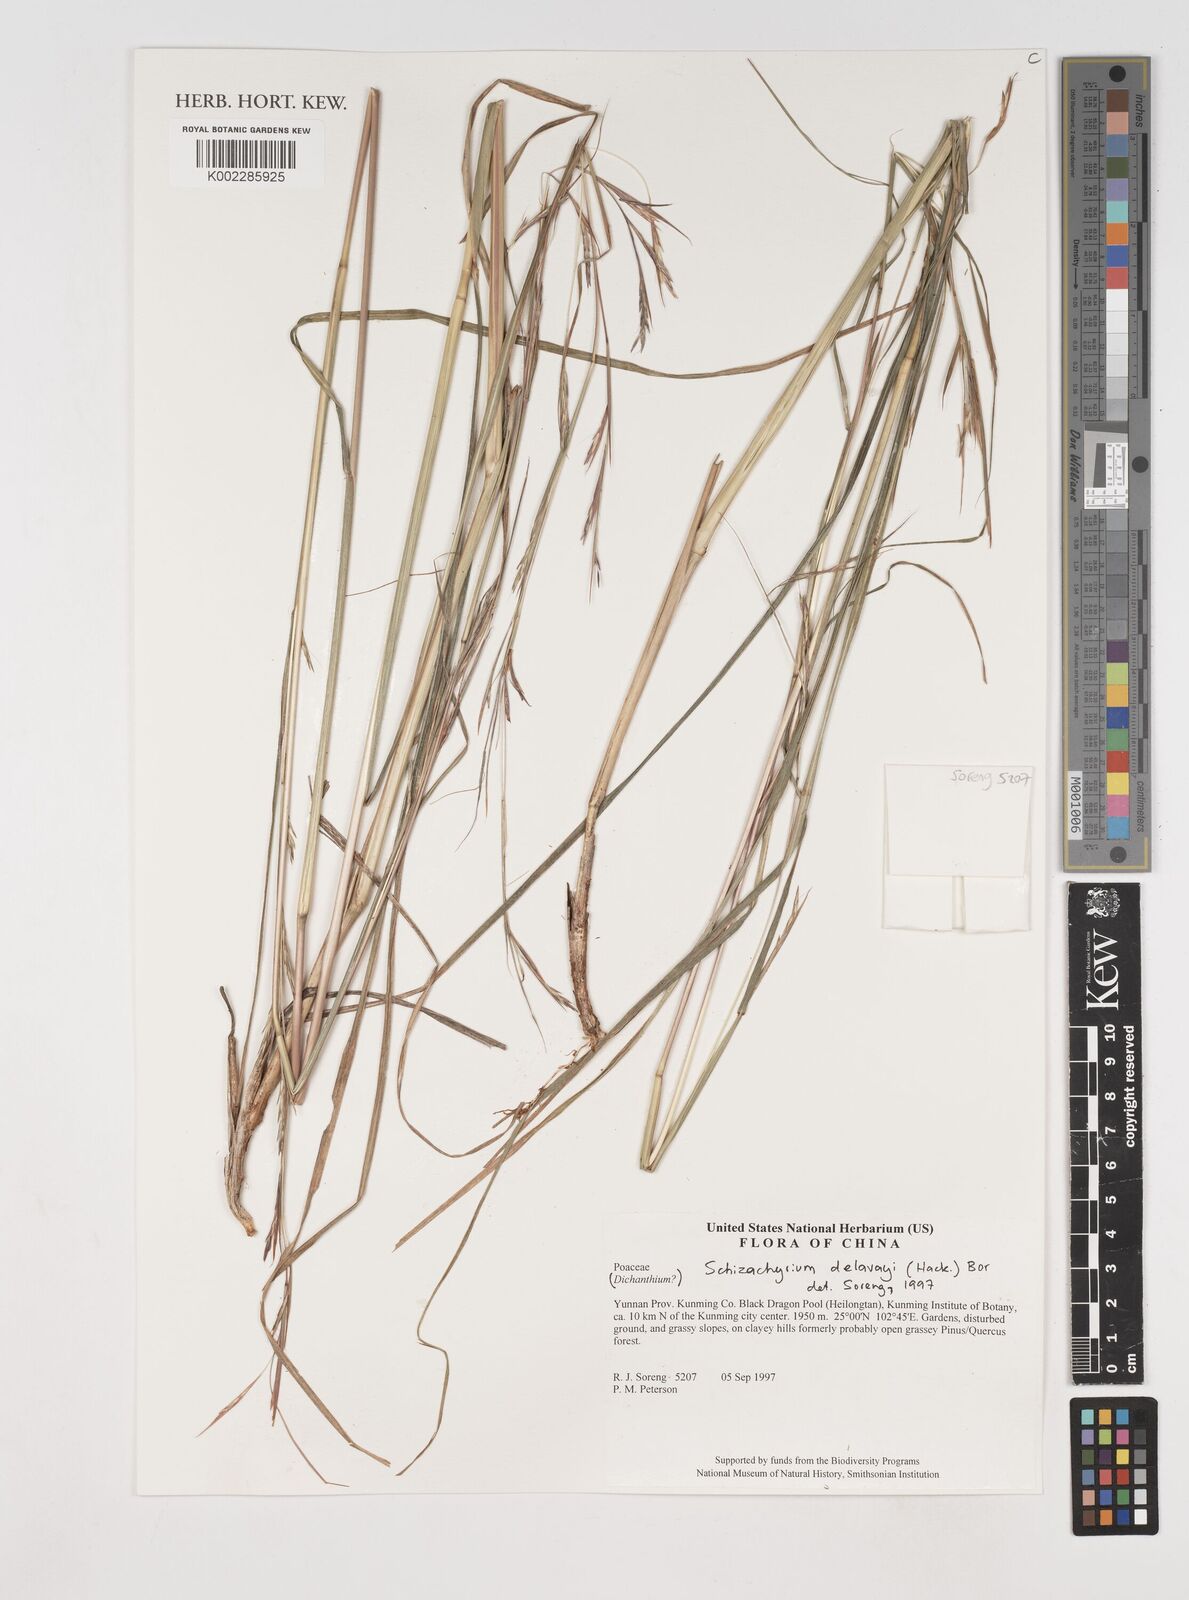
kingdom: Plantae
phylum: Tracheophyta
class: Liliopsida
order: Poales
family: Poaceae
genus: Schizachyrium
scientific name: Schizachyrium delavayi
